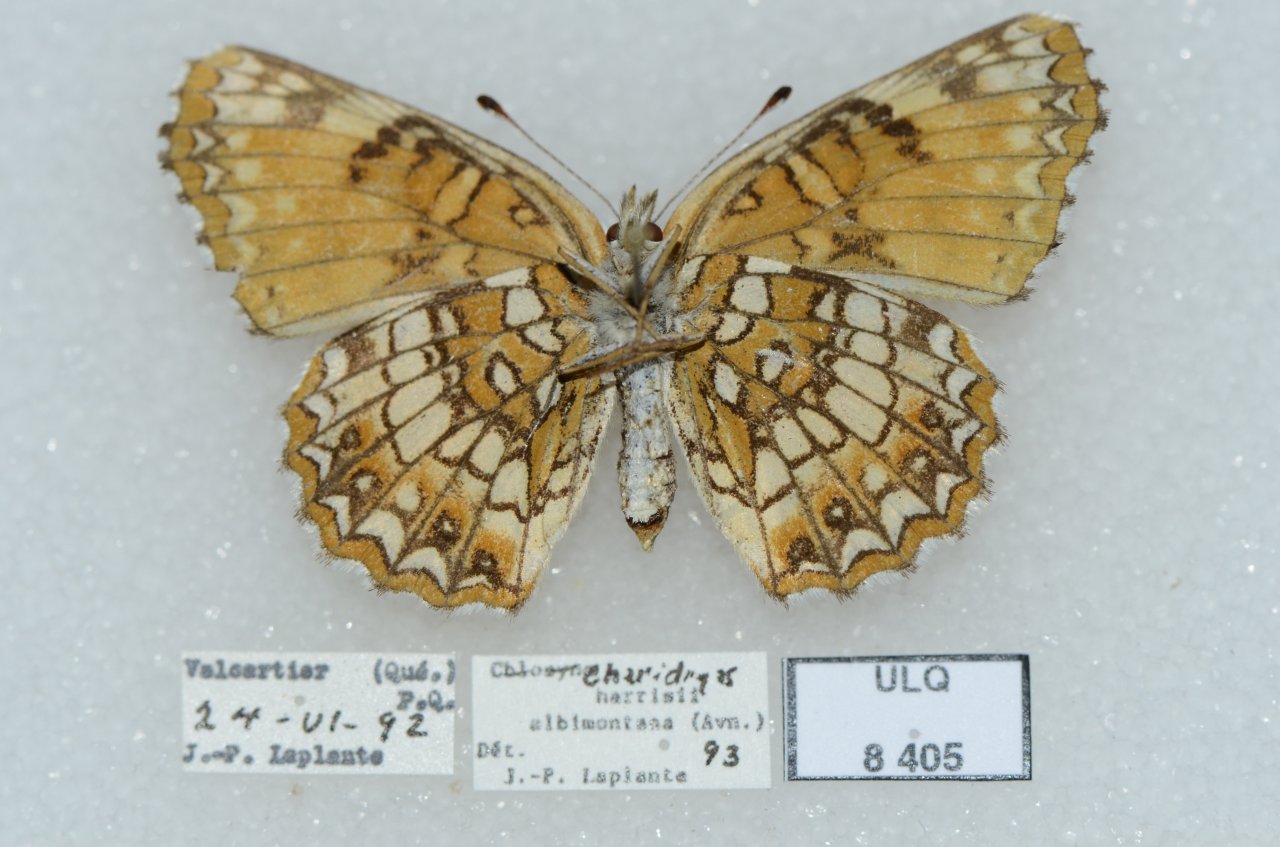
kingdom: Animalia
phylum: Arthropoda
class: Insecta
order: Lepidoptera
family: Nymphalidae
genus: Chlosyne
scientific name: Chlosyne harrisii
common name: Harris's Checkerspot
